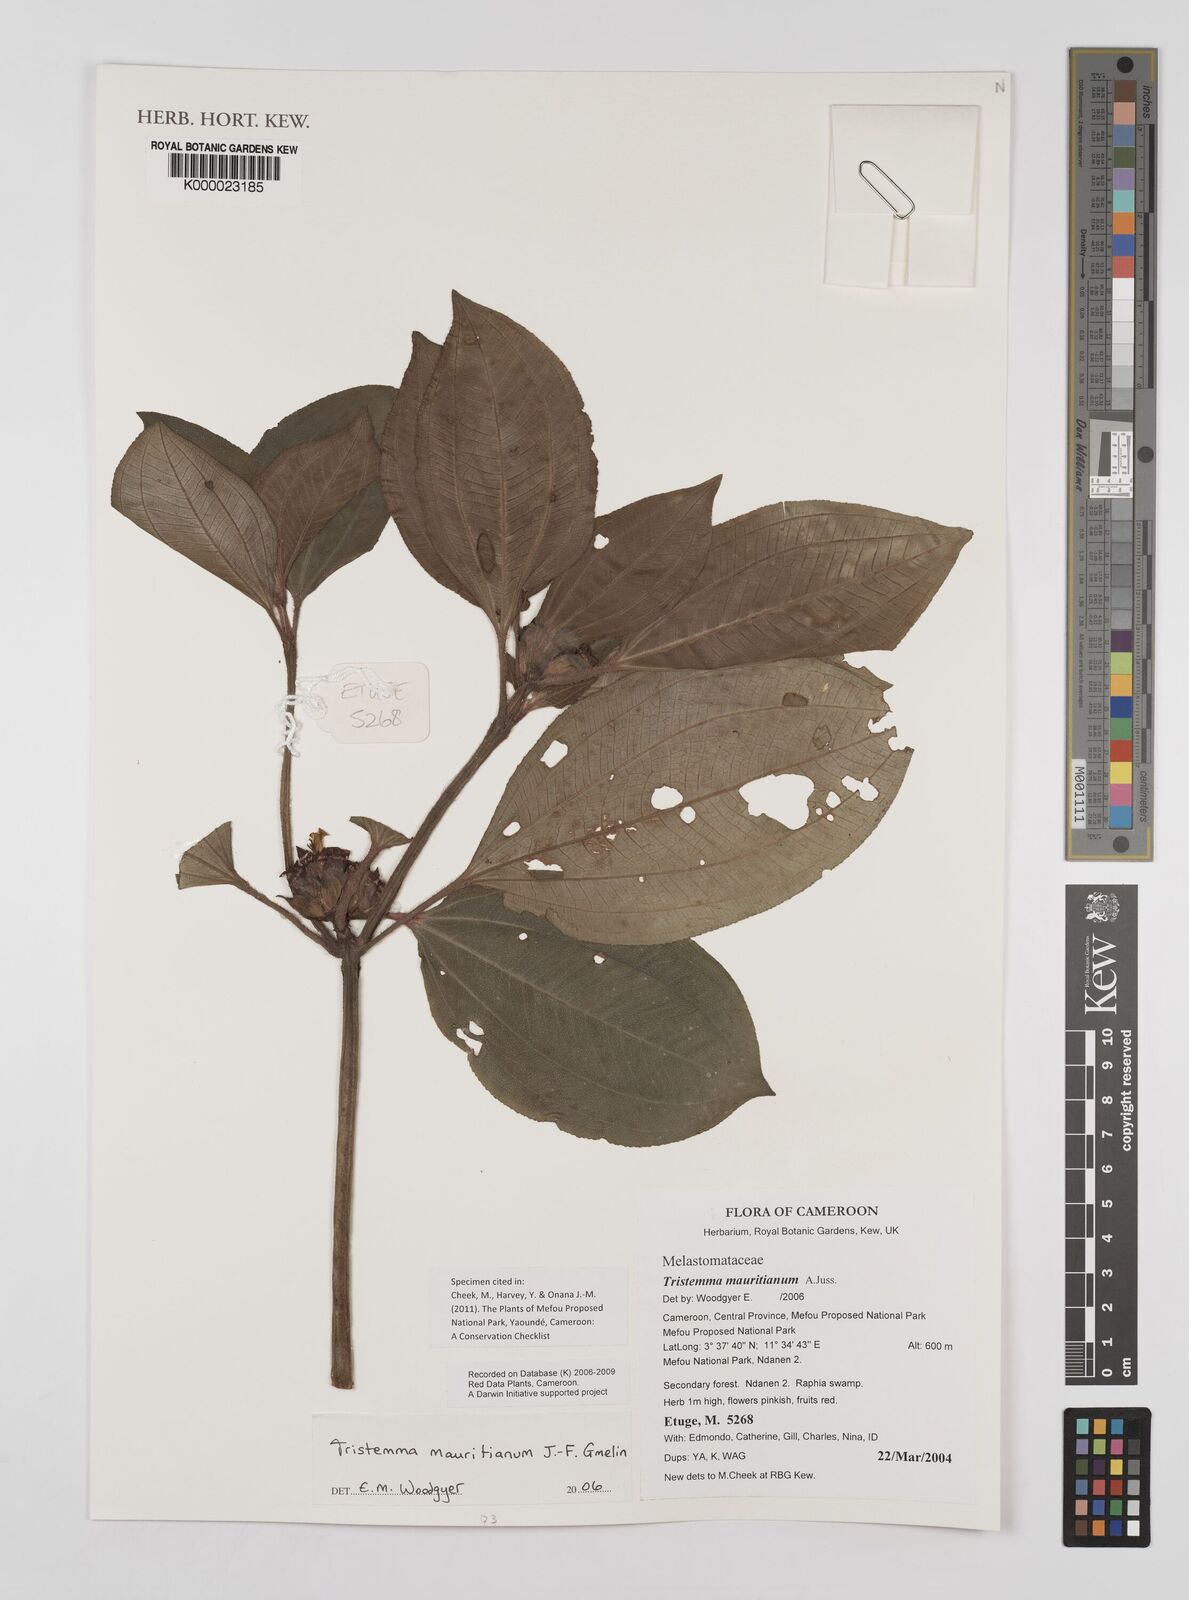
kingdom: Plantae
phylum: Tracheophyta
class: Magnoliopsida
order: Myrtales
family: Melastomataceae
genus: Tristemma
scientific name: Tristemma
